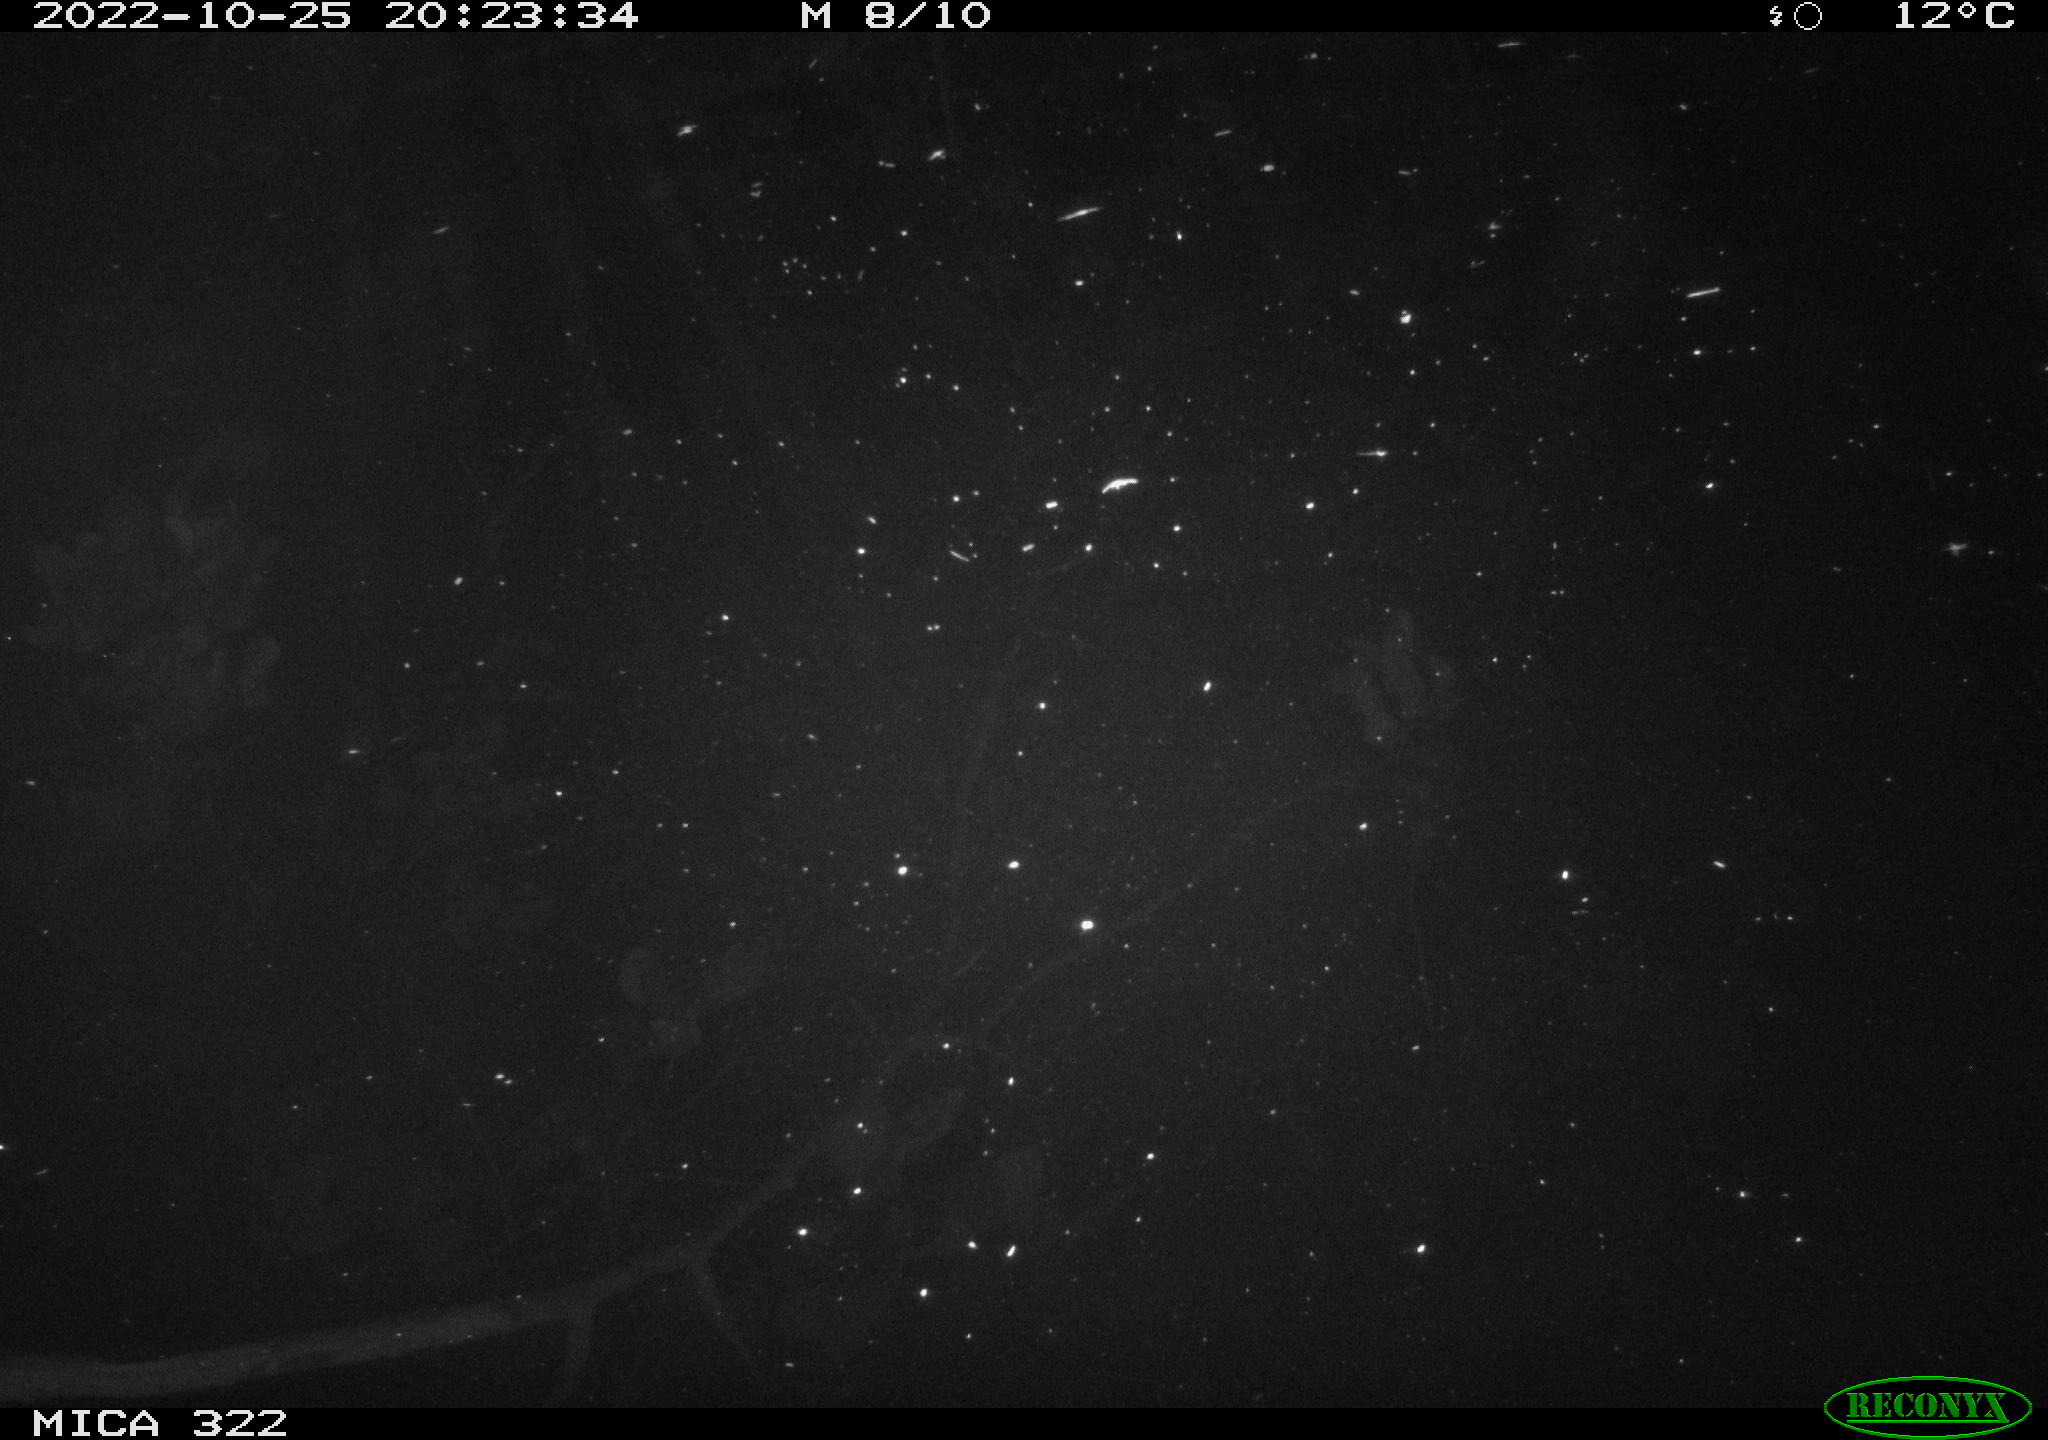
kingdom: Animalia
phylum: Chordata
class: Mammalia
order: Rodentia
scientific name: Rodentia
